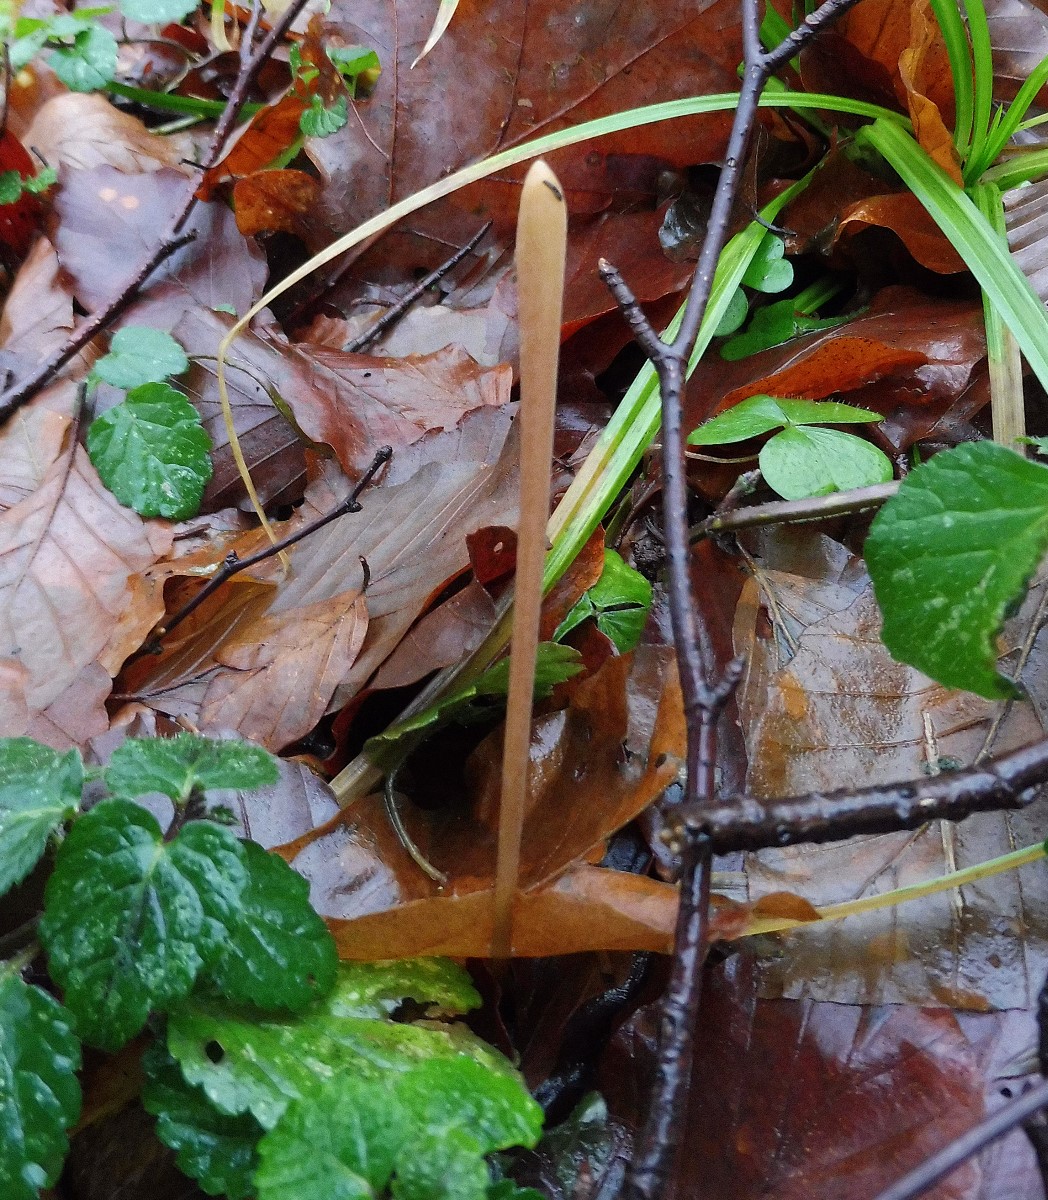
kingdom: Fungi
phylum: Basidiomycota
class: Agaricomycetes
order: Agaricales
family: Typhulaceae
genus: Typhula
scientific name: Typhula fistulosa
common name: pibet rørkølle
